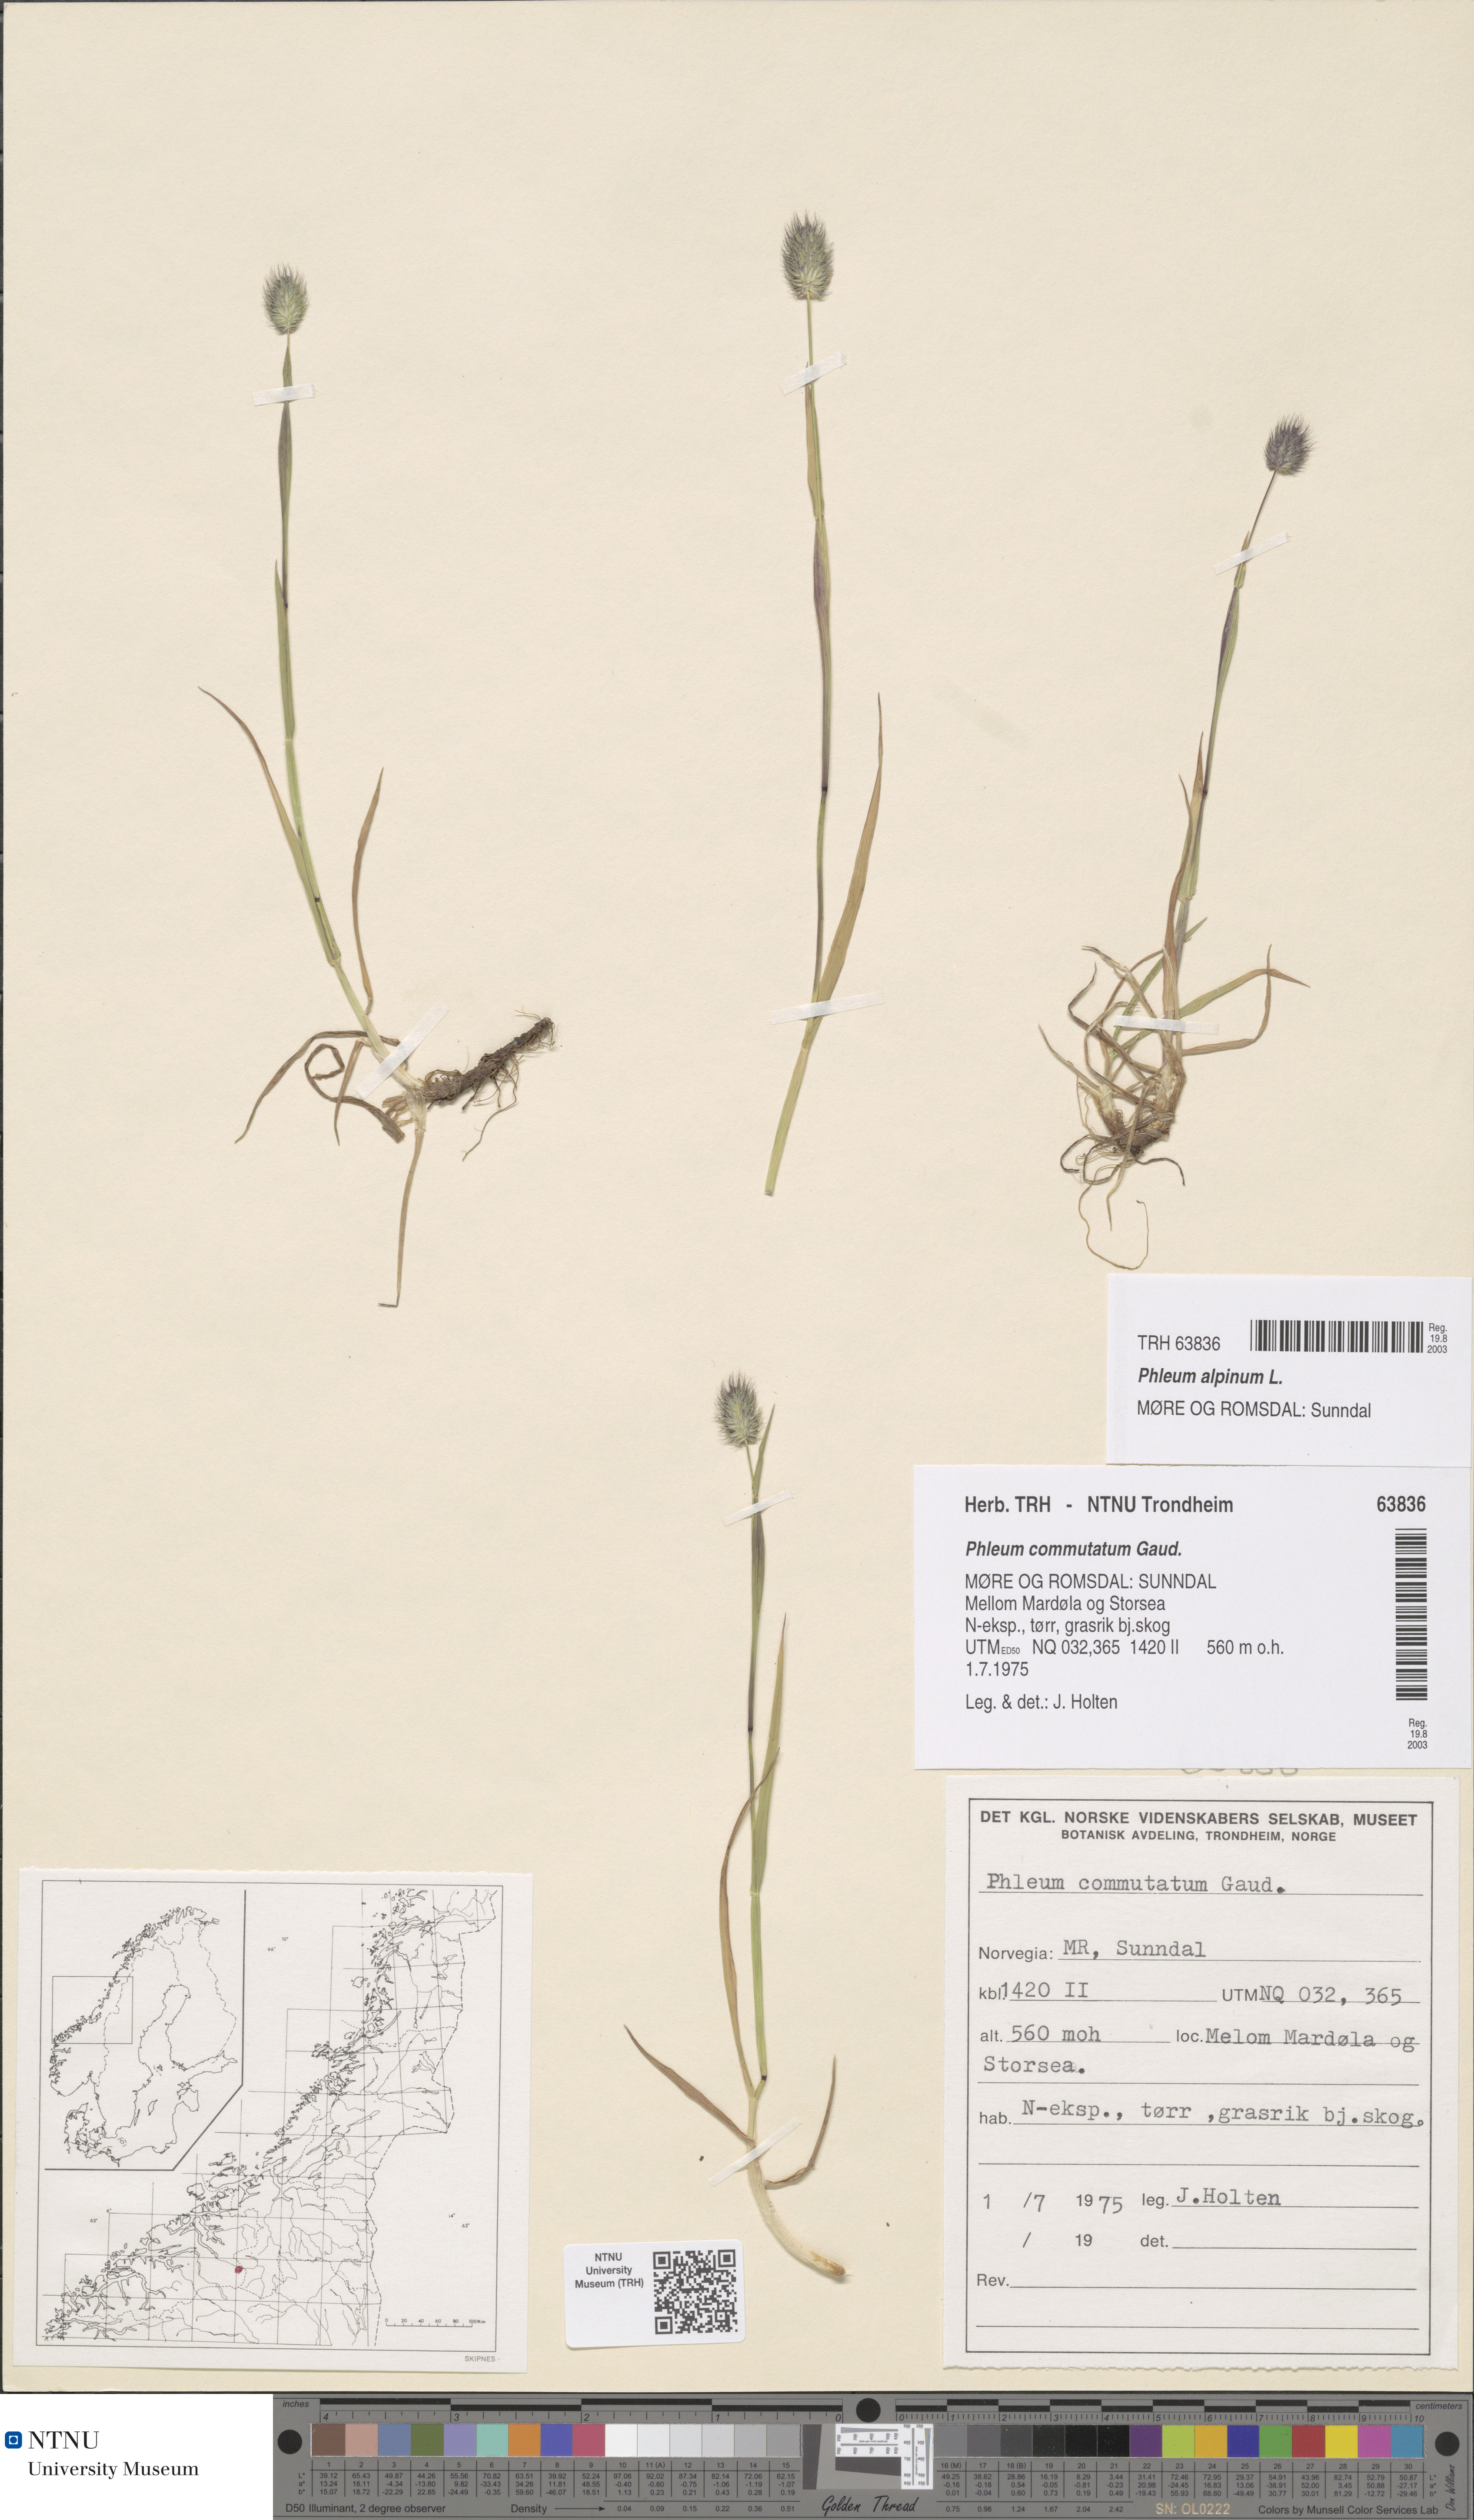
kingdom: Plantae
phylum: Tracheophyta
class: Liliopsida
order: Poales
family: Poaceae
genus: Phleum
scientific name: Phleum alpinum
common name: Alpine cat's-tail
